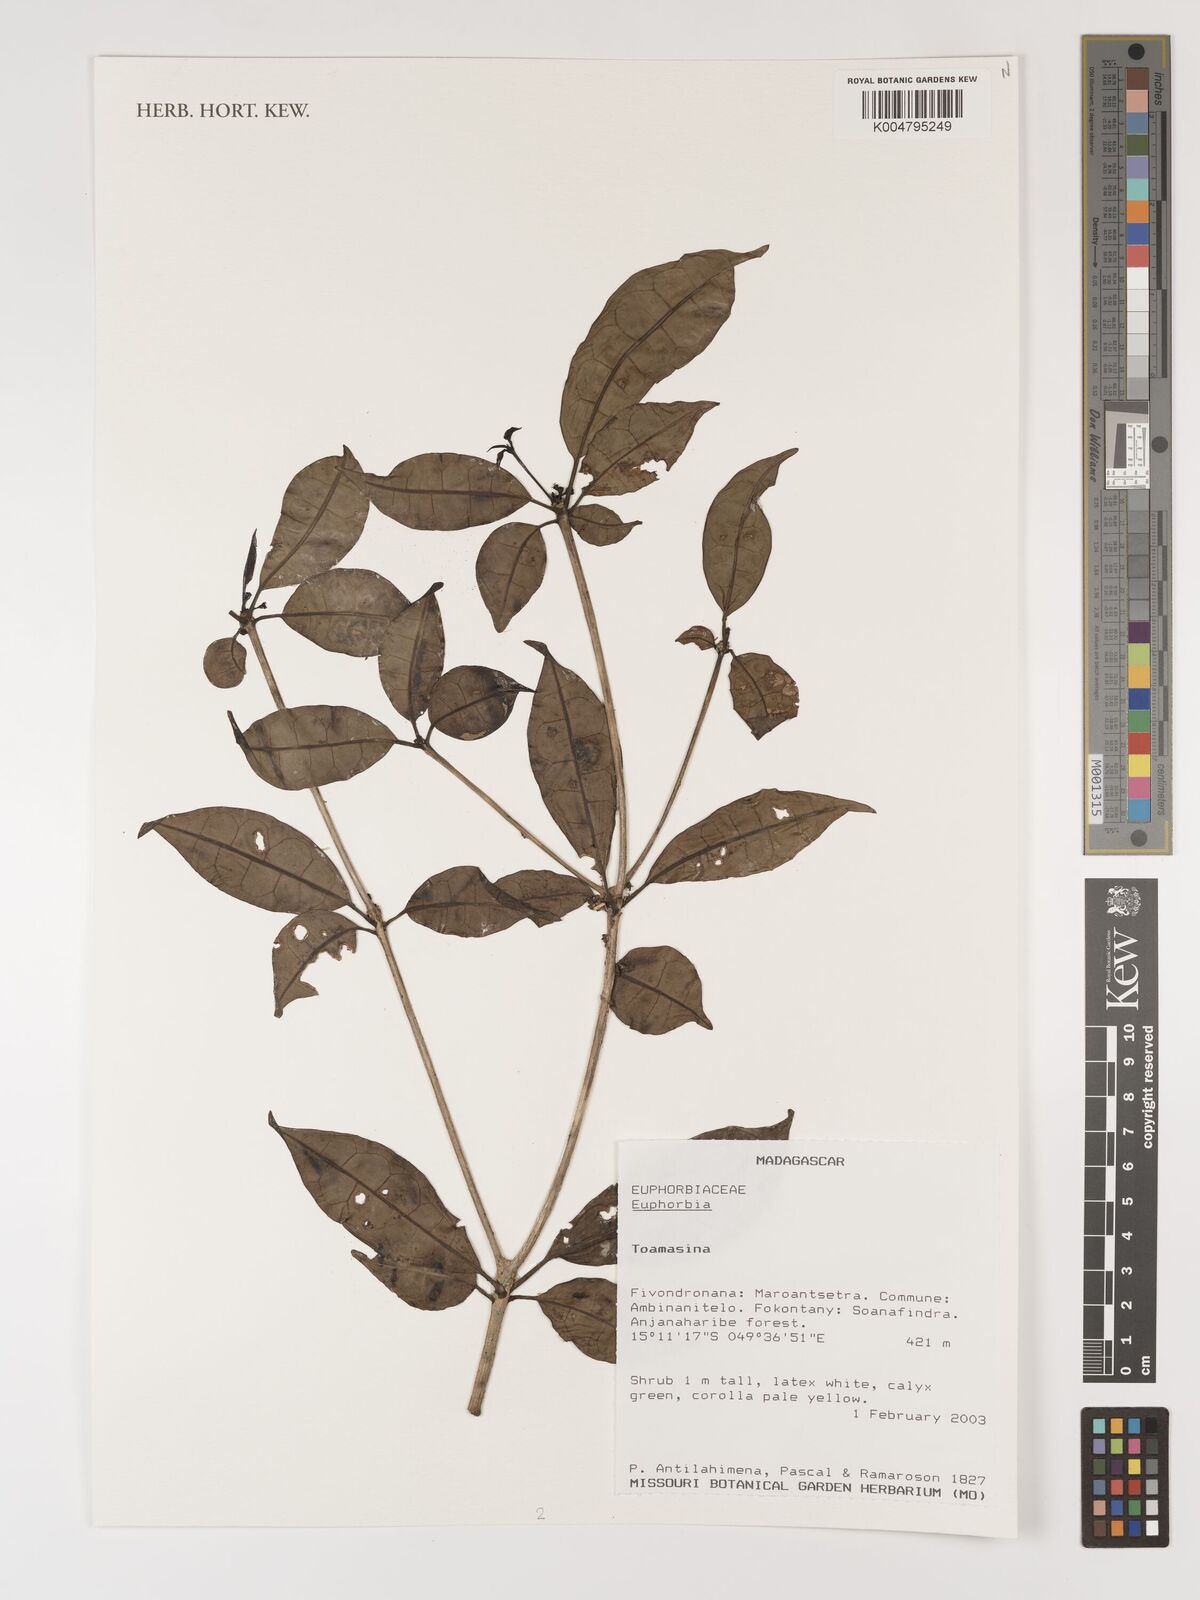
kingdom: Plantae
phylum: Tracheophyta
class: Magnoliopsida
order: Malpighiales
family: Euphorbiaceae
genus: Euphorbia
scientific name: Euphorbia
